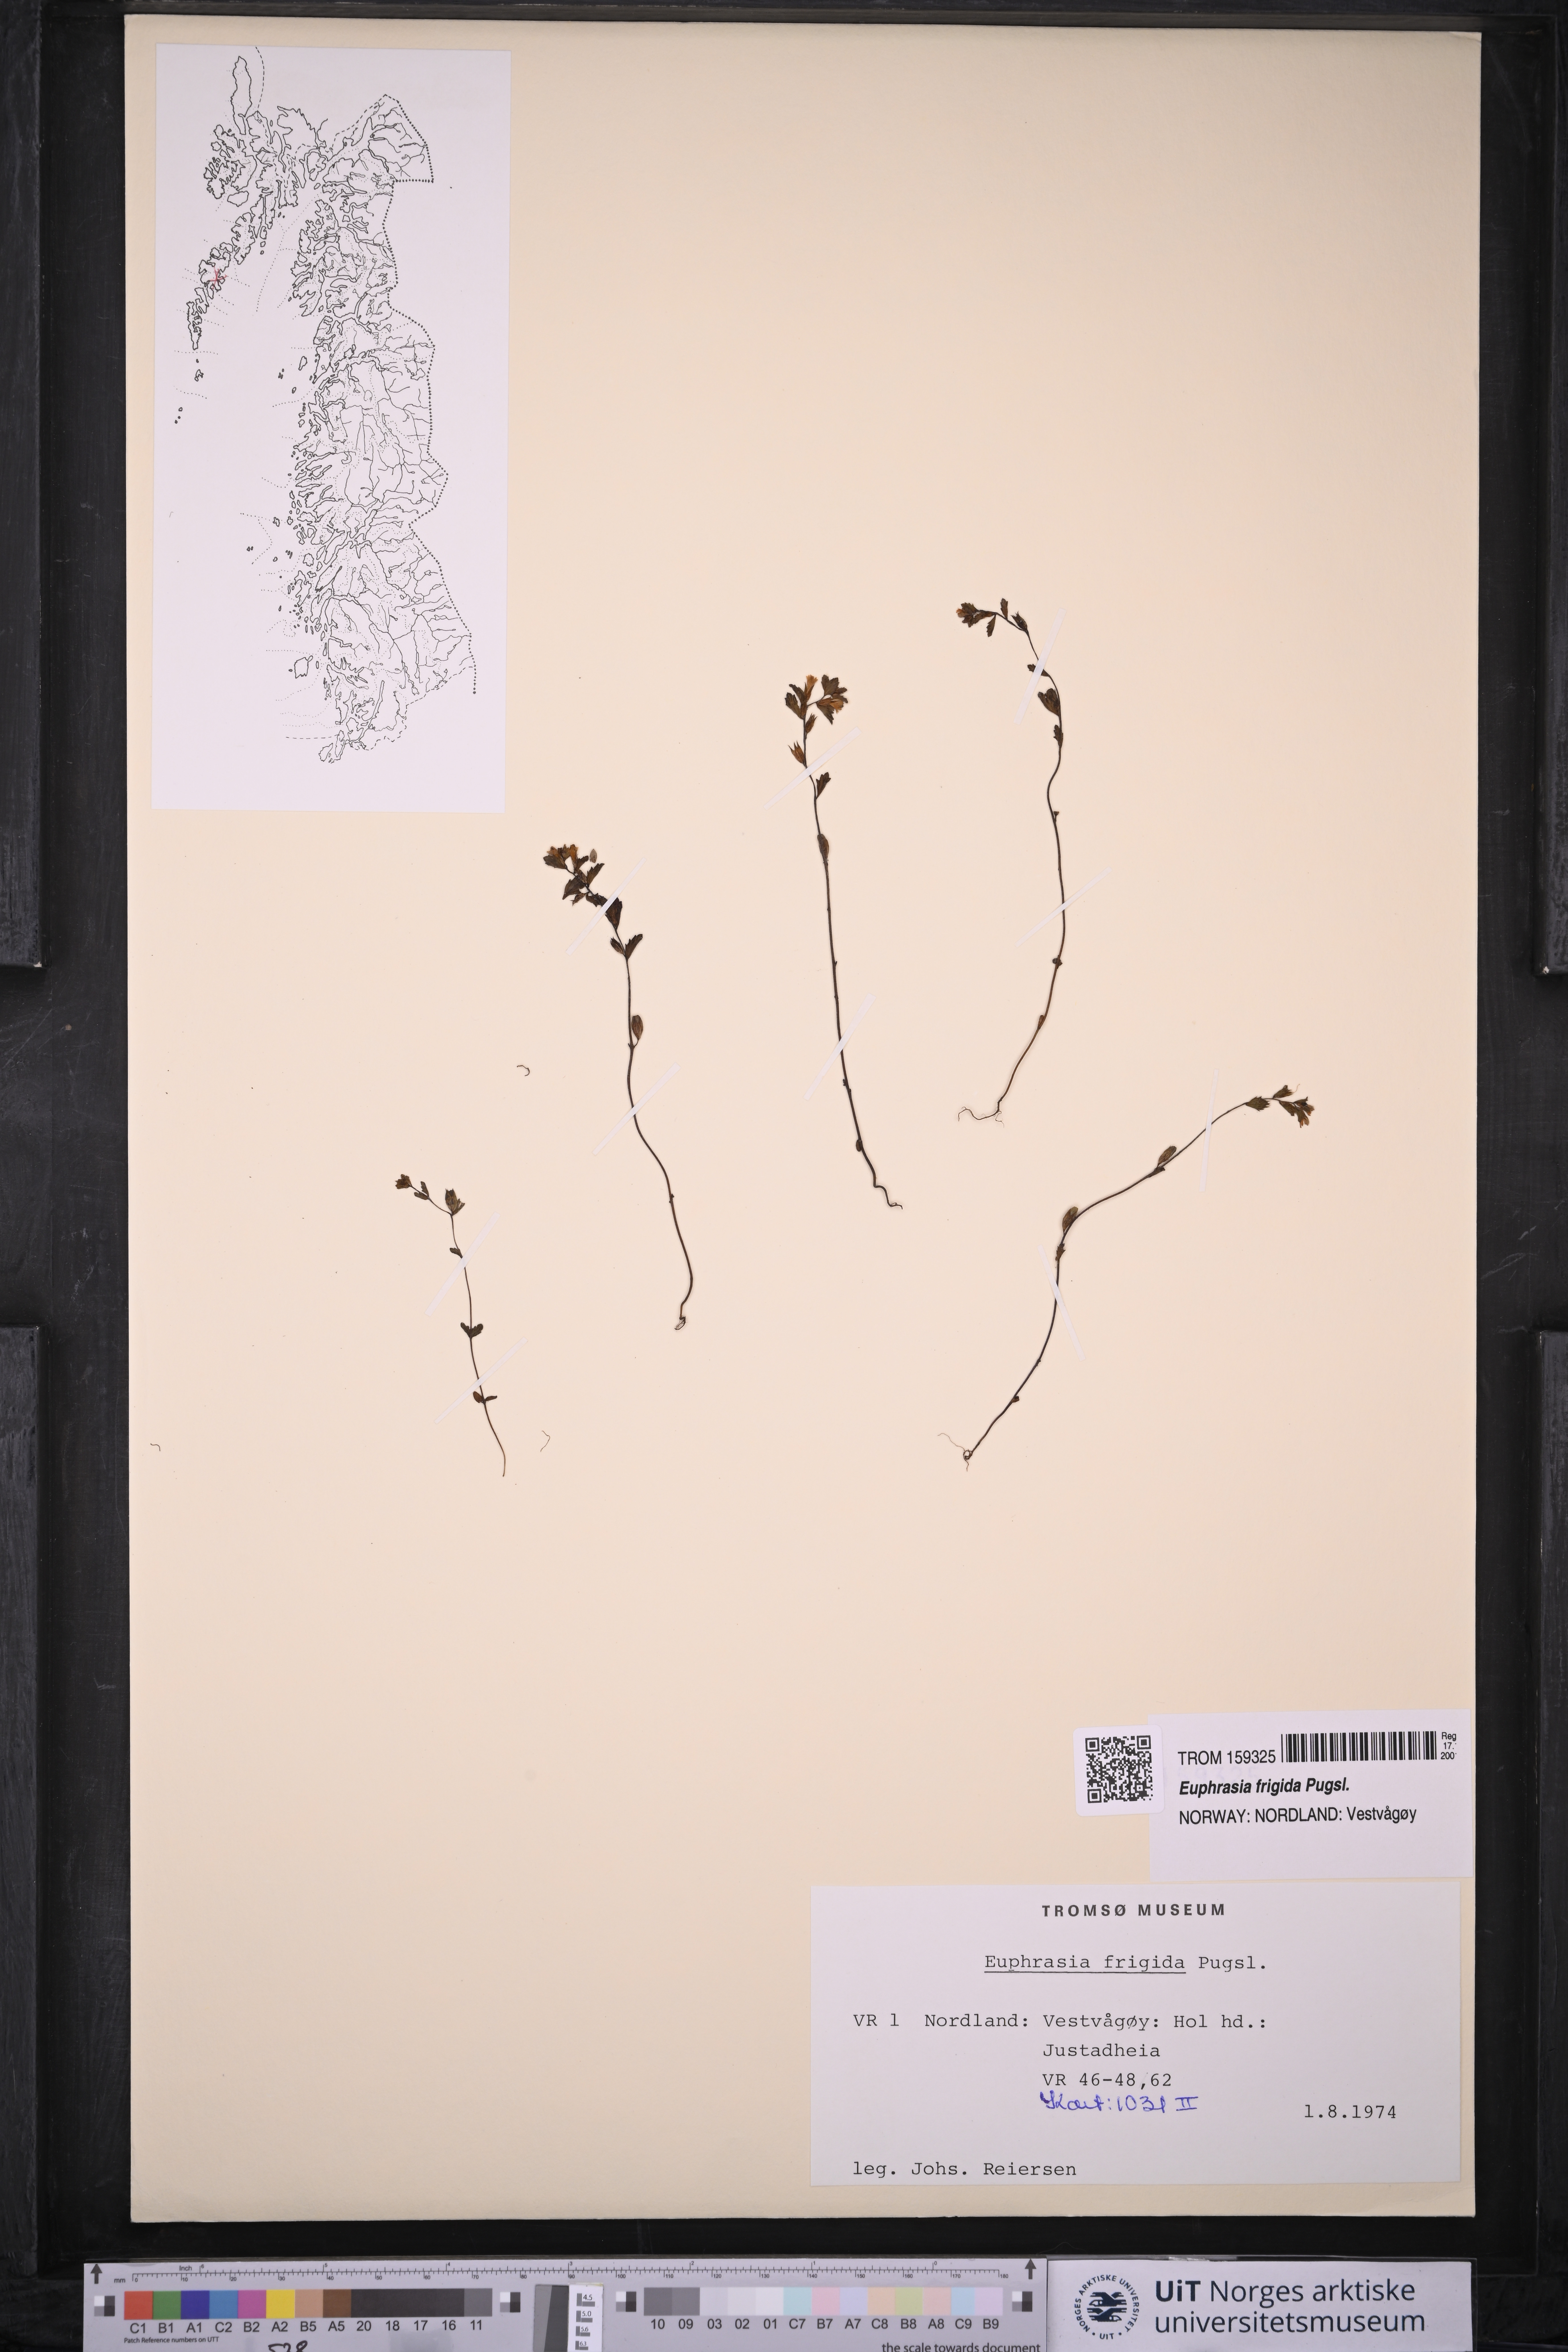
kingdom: Plantae
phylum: Tracheophyta
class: Magnoliopsida
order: Lamiales
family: Orobanchaceae
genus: Euphrasia
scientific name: Euphrasia frigida
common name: An eyebright
